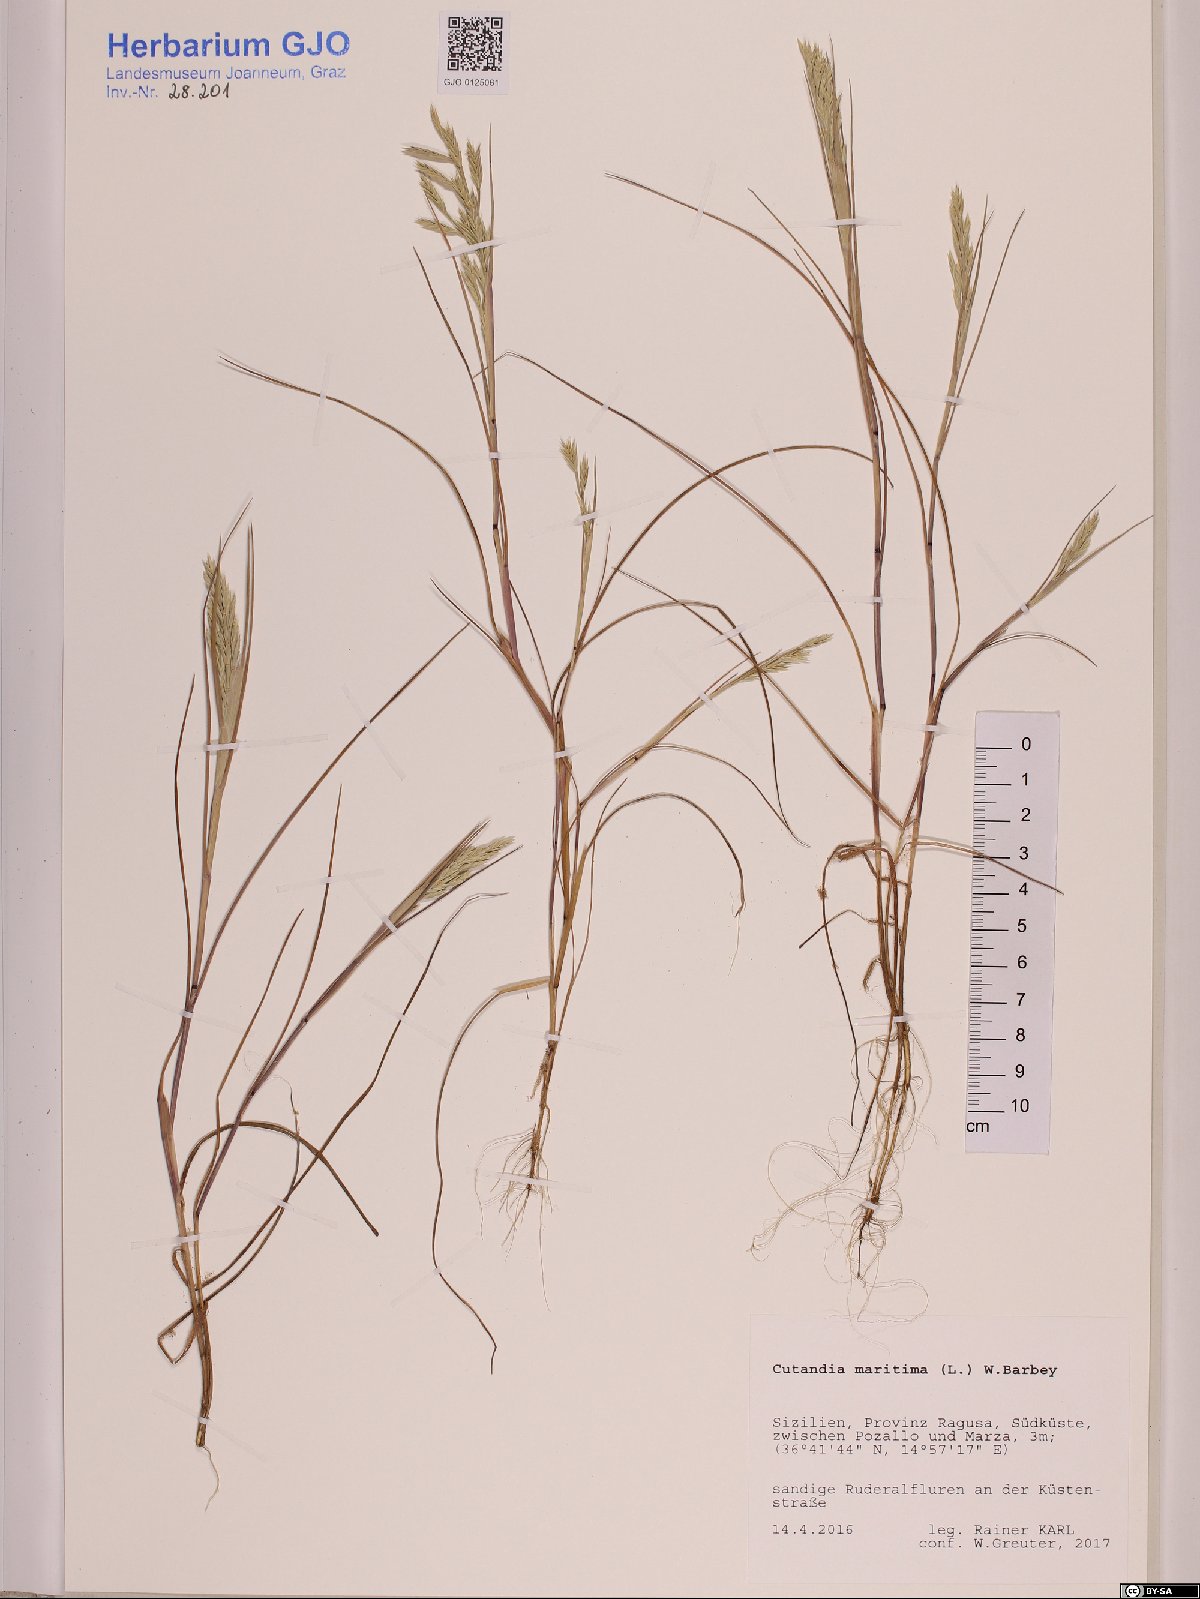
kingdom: Plantae
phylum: Tracheophyta
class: Liliopsida
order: Poales
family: Poaceae
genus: Cutandia
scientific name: Cutandia maritima
